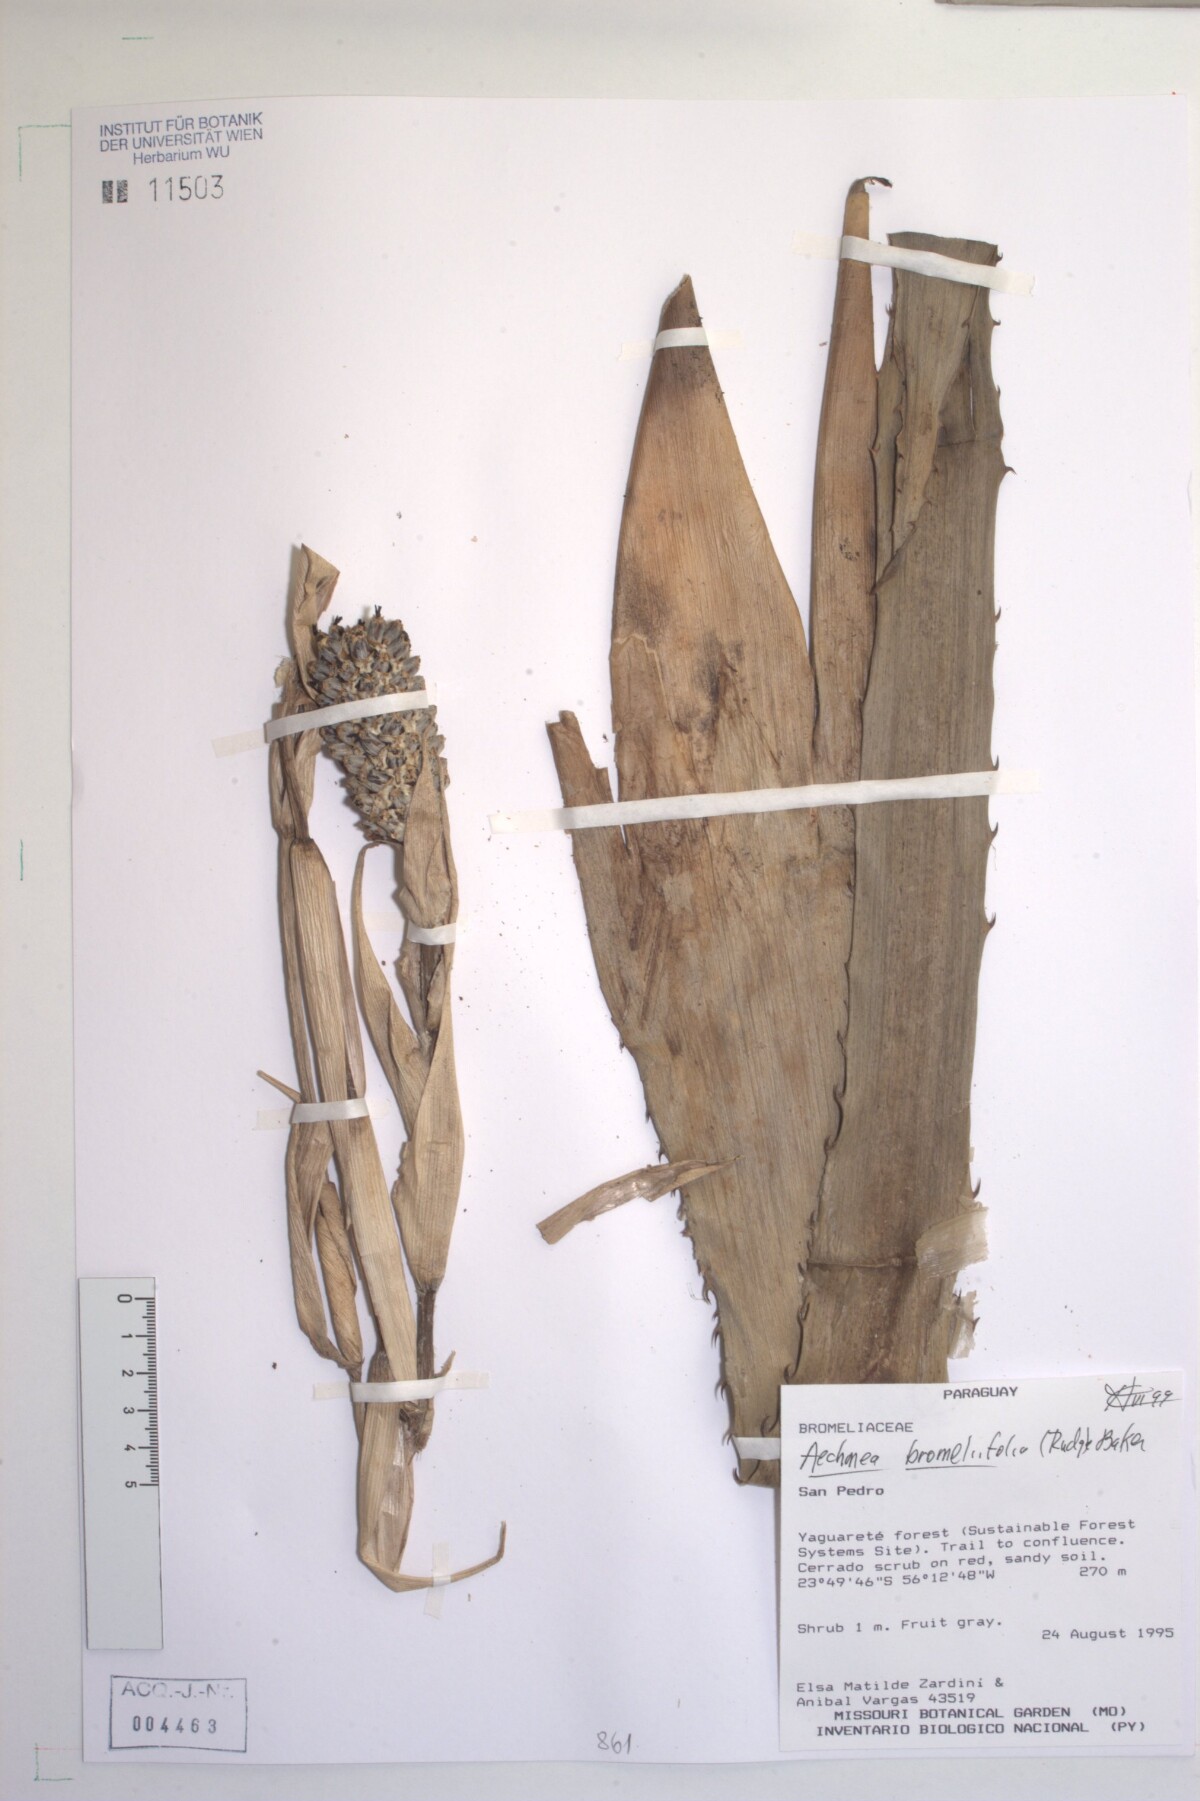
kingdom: Plantae
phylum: Tracheophyta
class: Liliopsida
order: Poales
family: Bromeliaceae
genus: Aechmea
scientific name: Aechmea bromeliifolia
